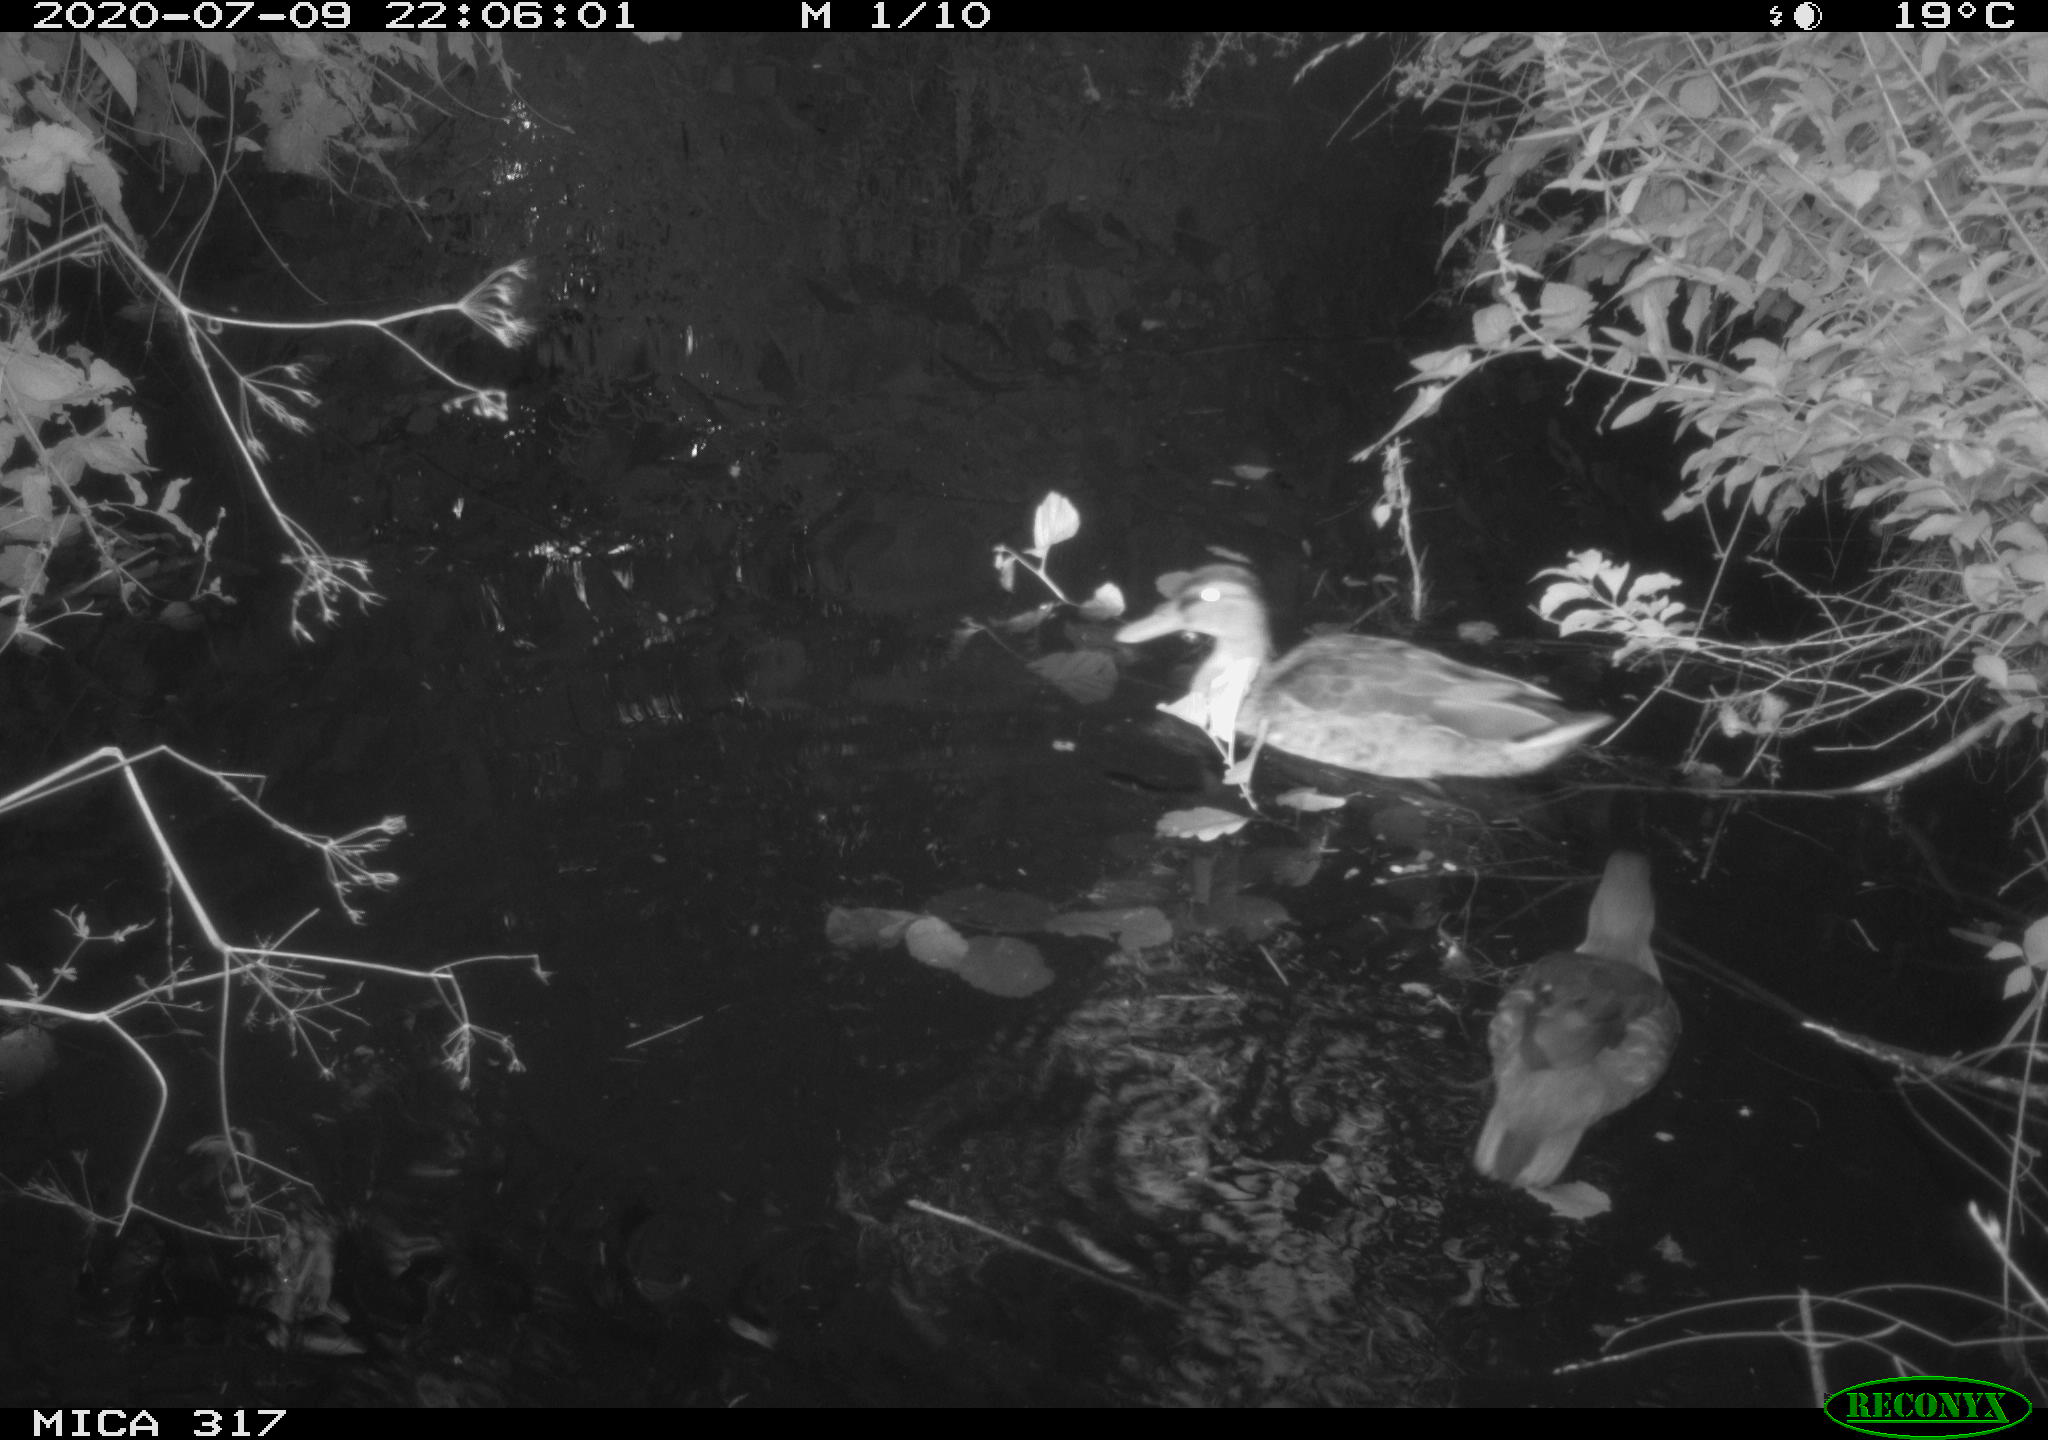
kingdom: Animalia
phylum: Chordata
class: Aves
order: Anseriformes
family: Anatidae
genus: Aix
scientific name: Aix galericulata
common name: Mandarin duck
